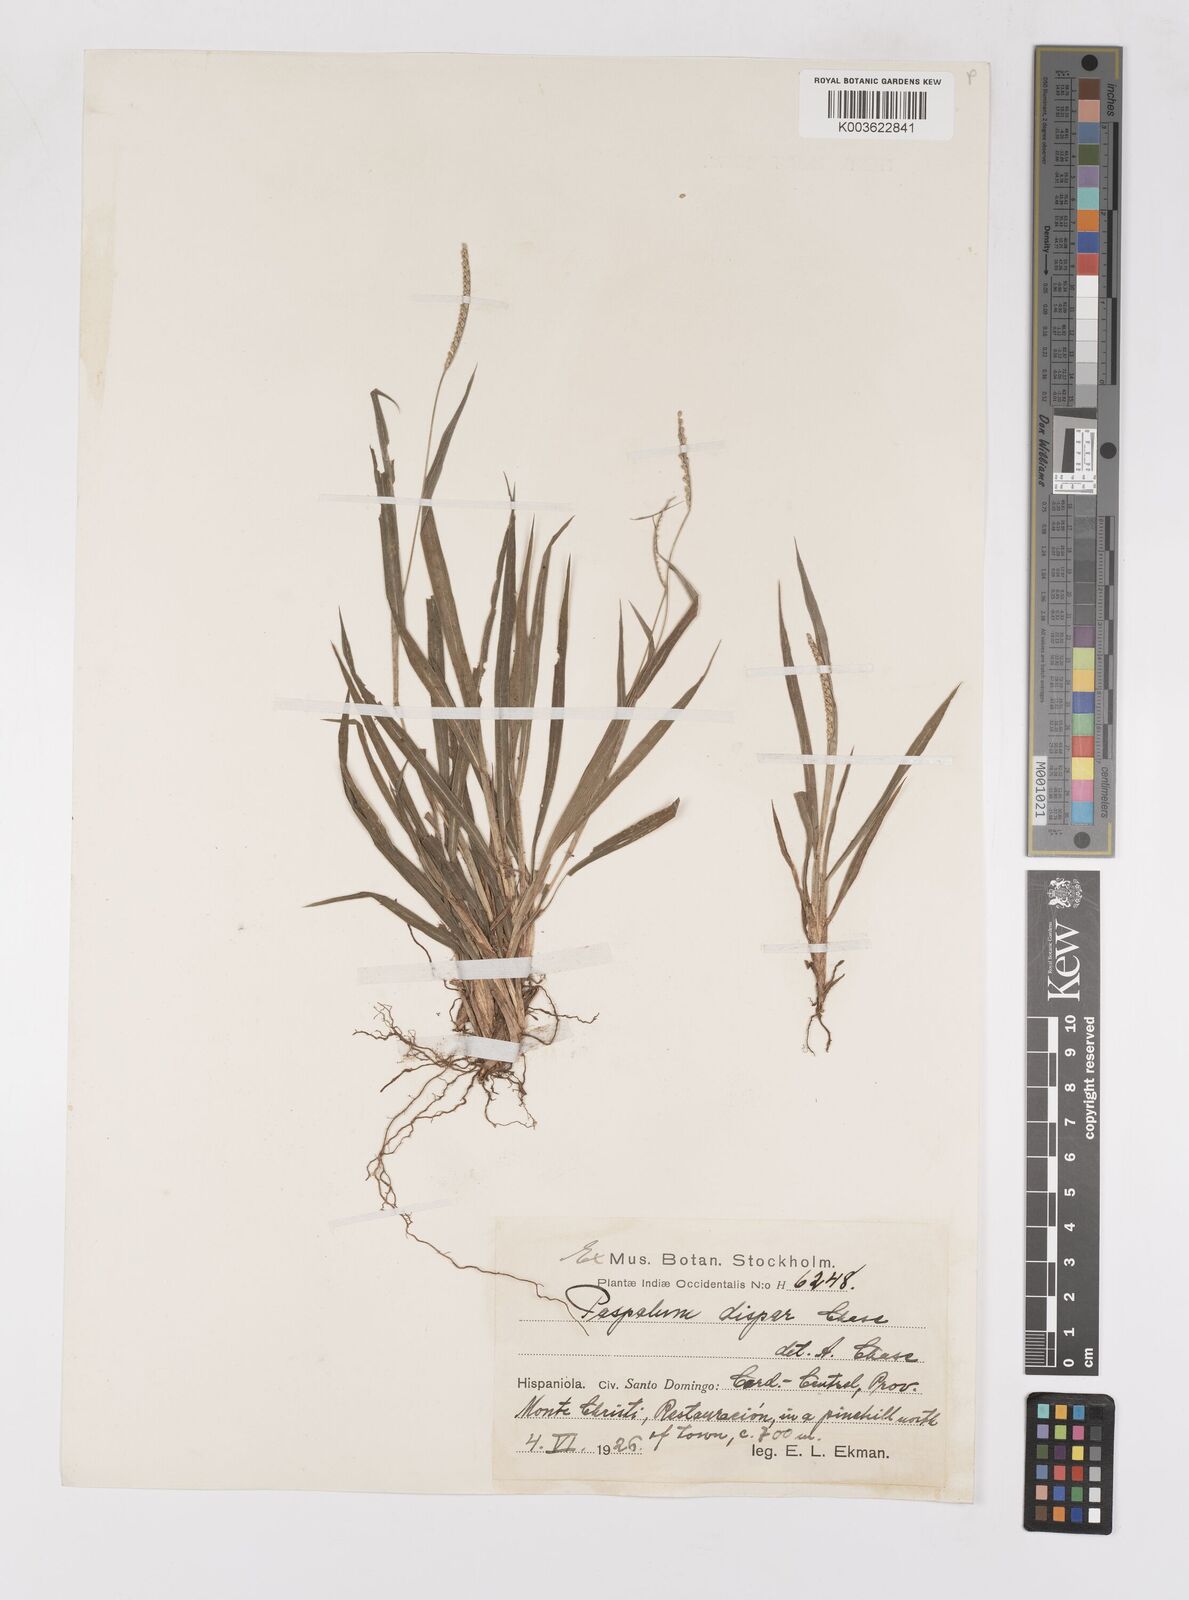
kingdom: Plantae
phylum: Tracheophyta
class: Liliopsida
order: Poales
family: Poaceae
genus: Paspalum
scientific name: Paspalum dispar
